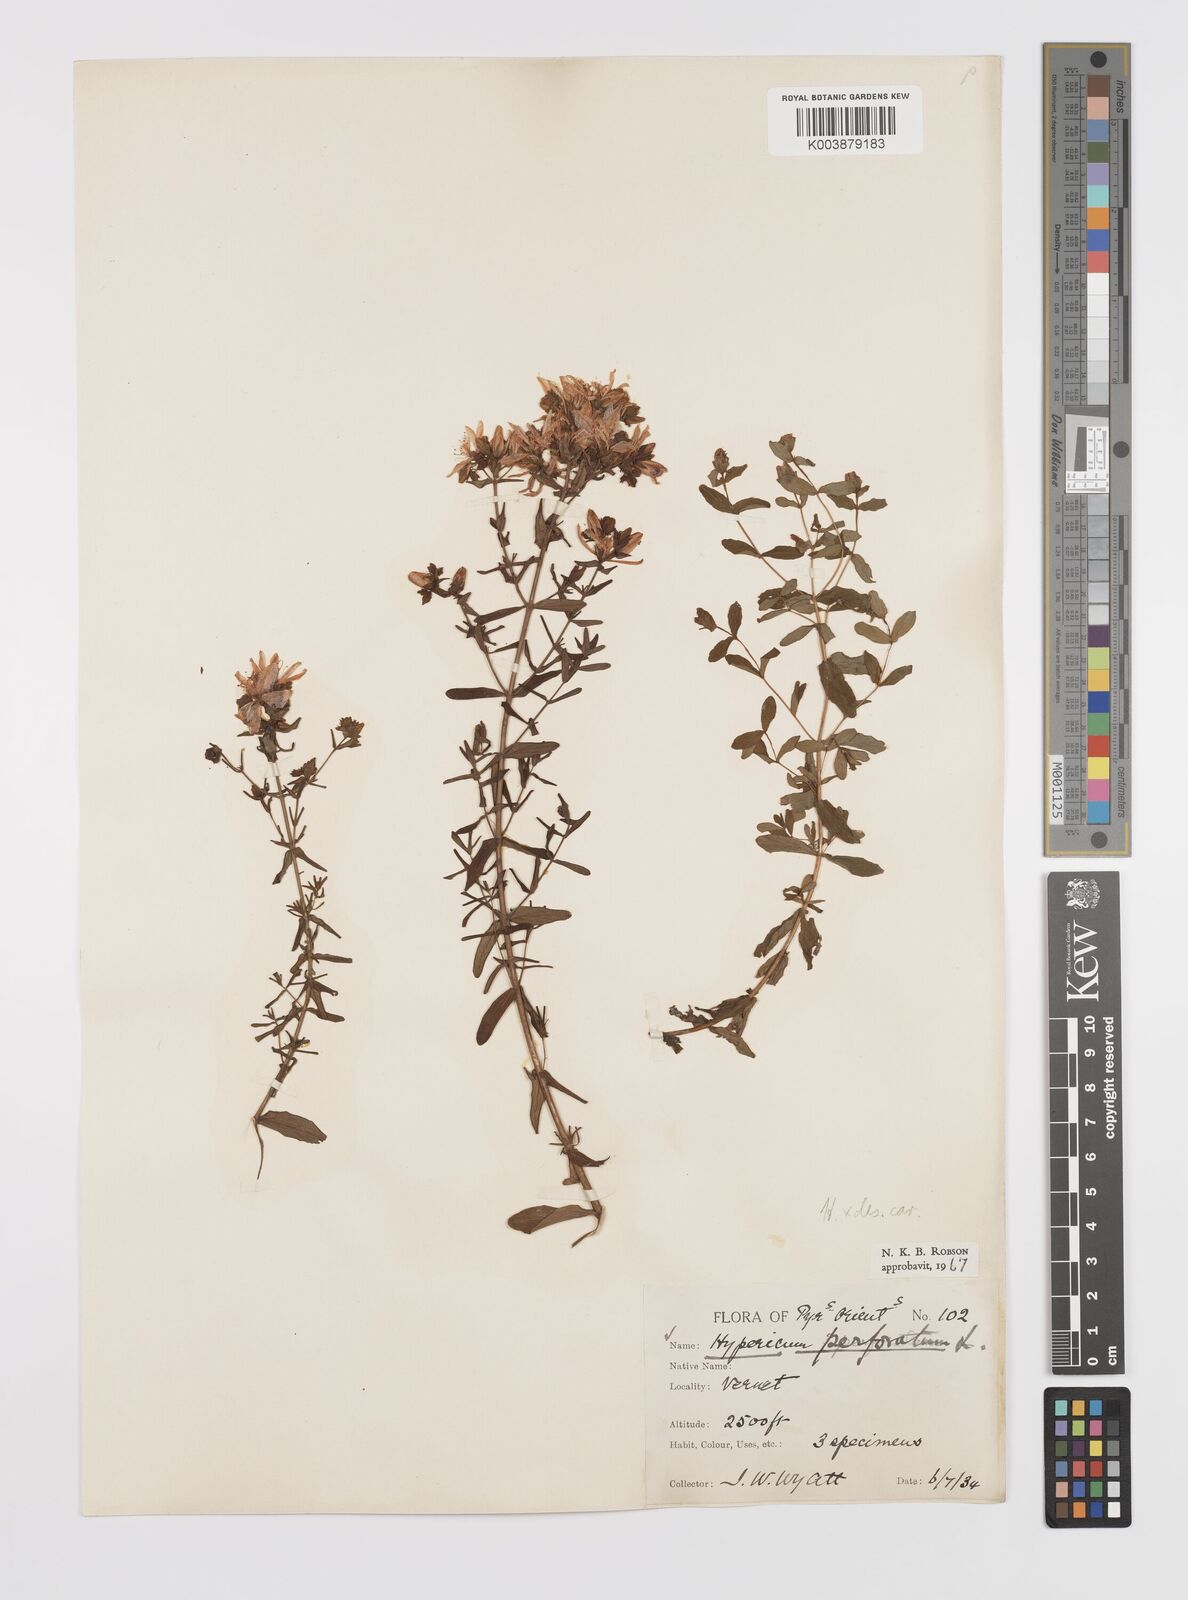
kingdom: Plantae
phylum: Tracheophyta
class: Magnoliopsida
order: Malpighiales
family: Hypericaceae
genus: Hypericum
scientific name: Hypericum carinthiacum
